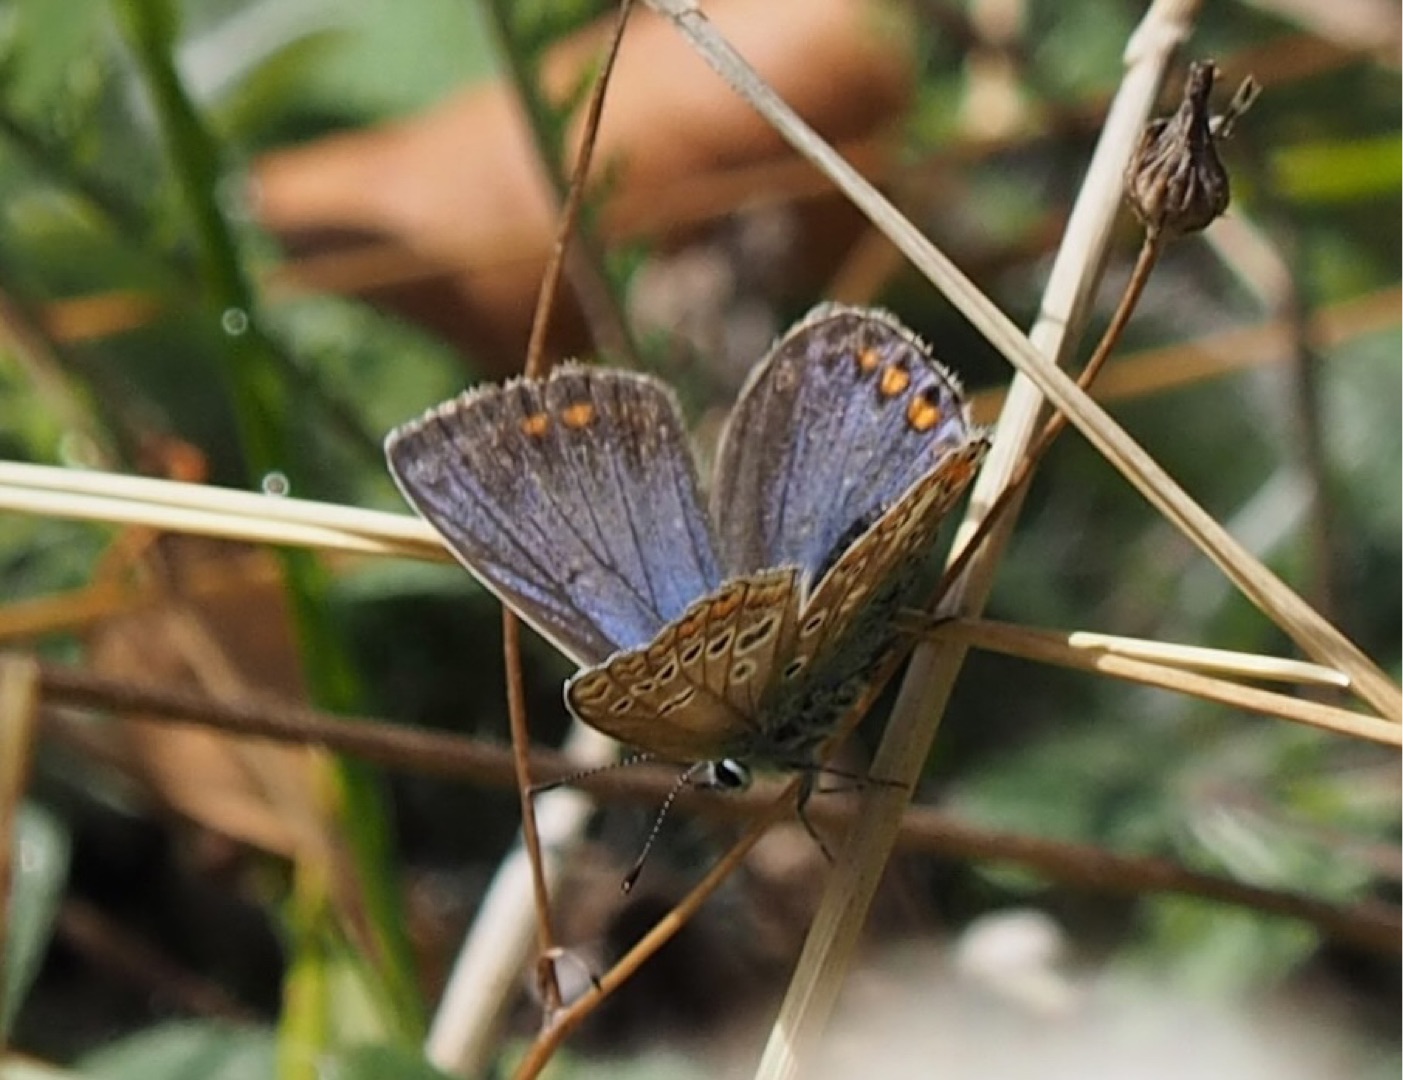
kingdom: Animalia
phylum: Arthropoda
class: Insecta
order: Lepidoptera
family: Lycaenidae
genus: Polyommatus
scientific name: Polyommatus icarus
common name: Almindelig blåfugl
